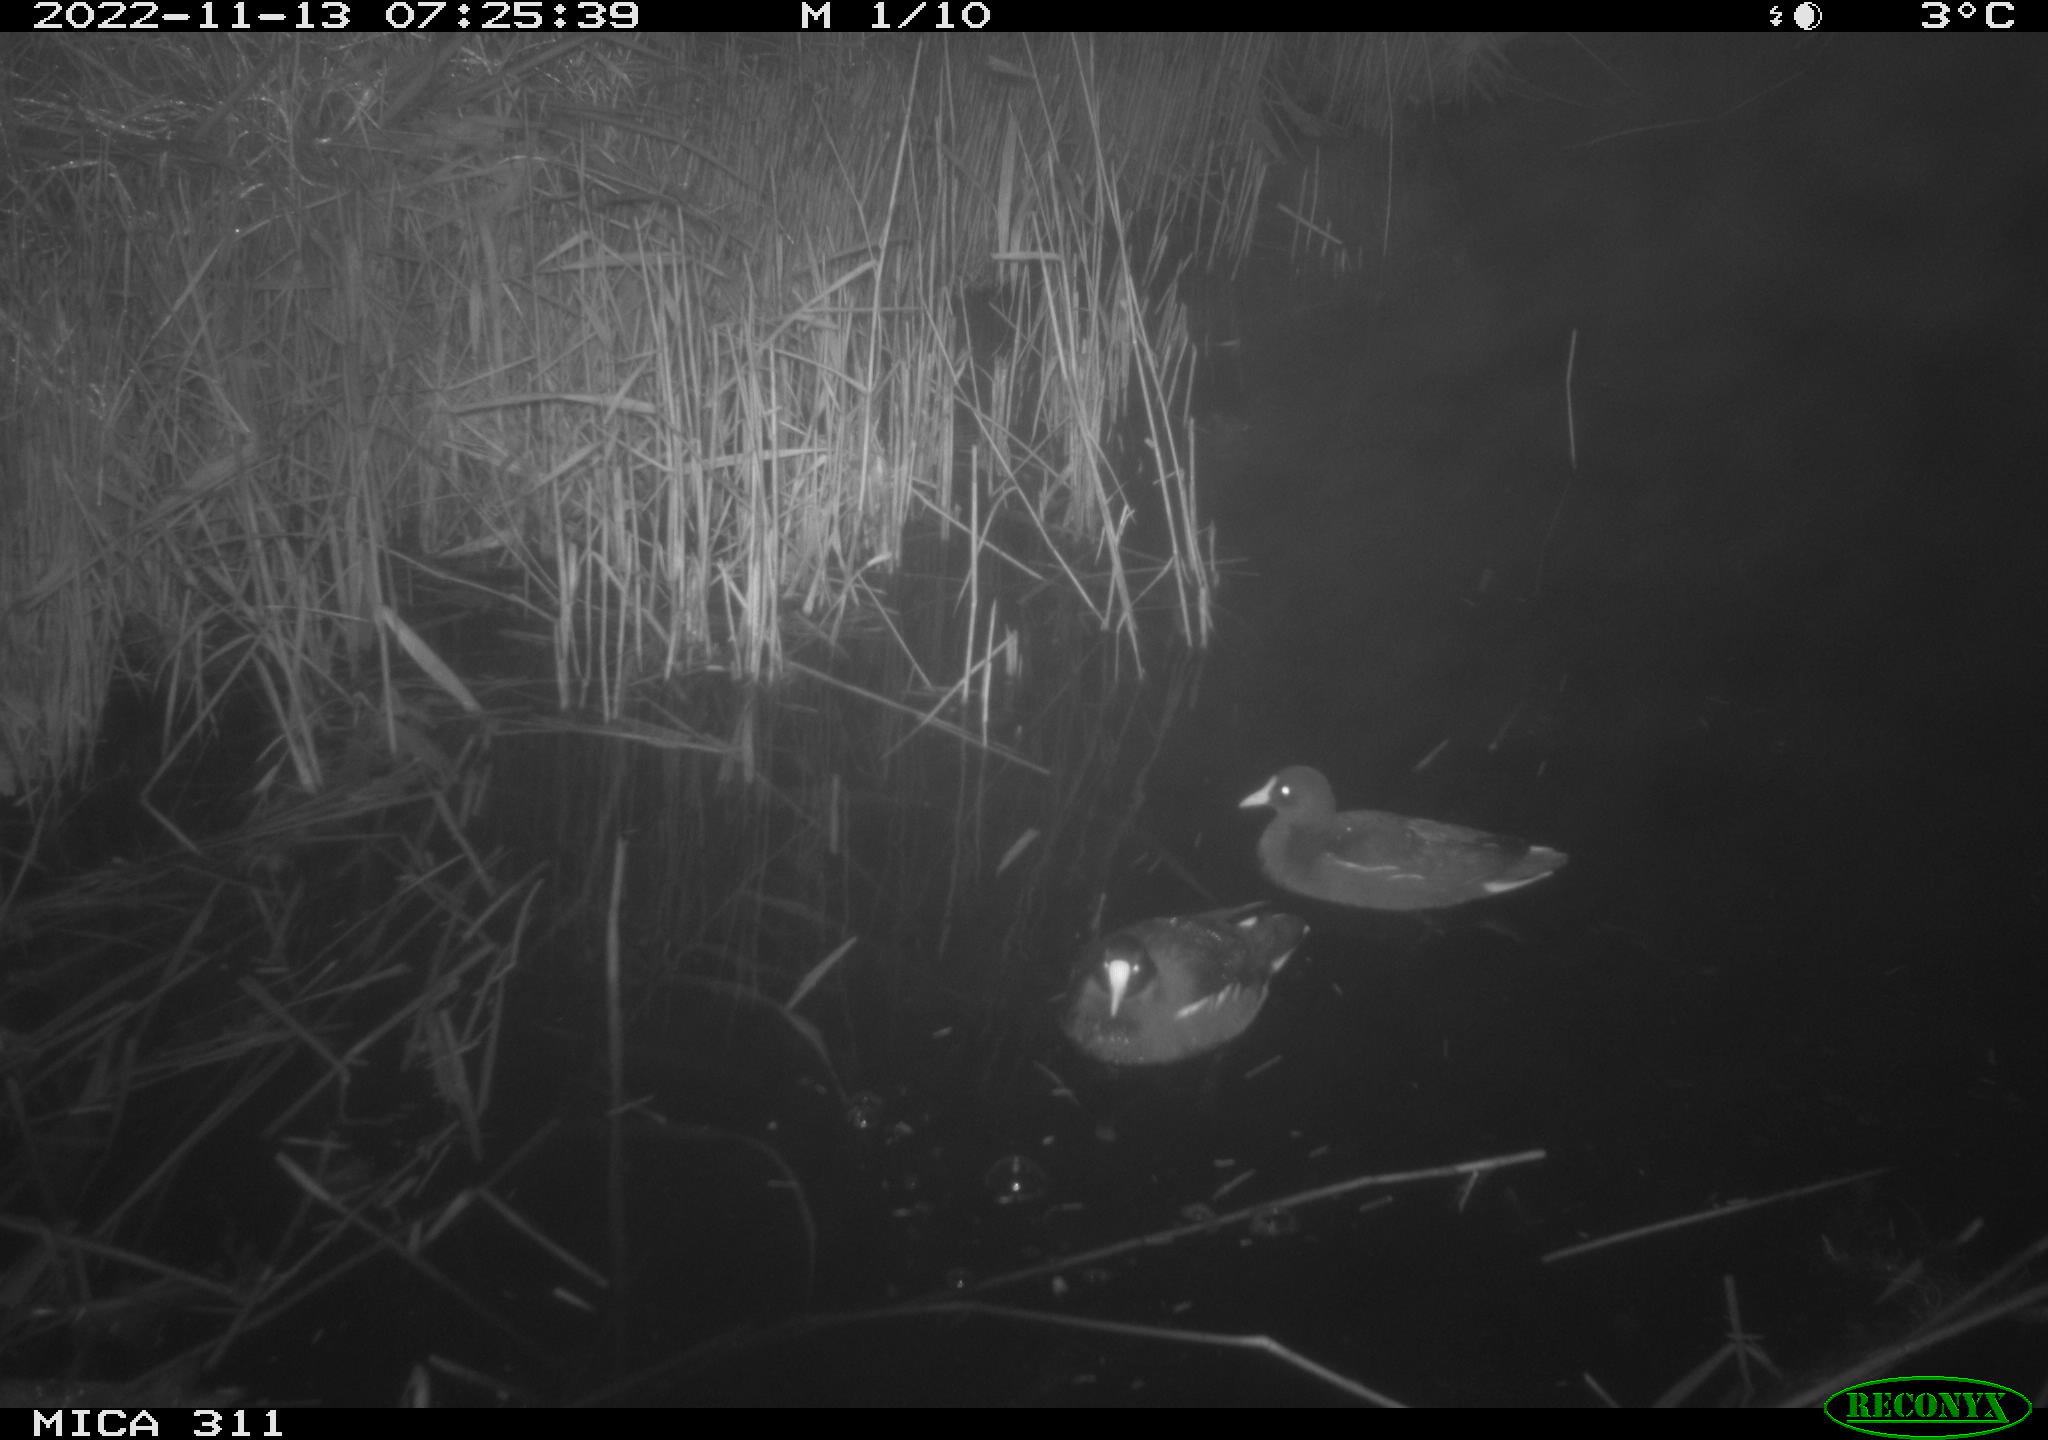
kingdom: Animalia
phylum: Chordata
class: Aves
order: Gruiformes
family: Rallidae
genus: Gallinula
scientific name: Gallinula chloropus
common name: Common moorhen
